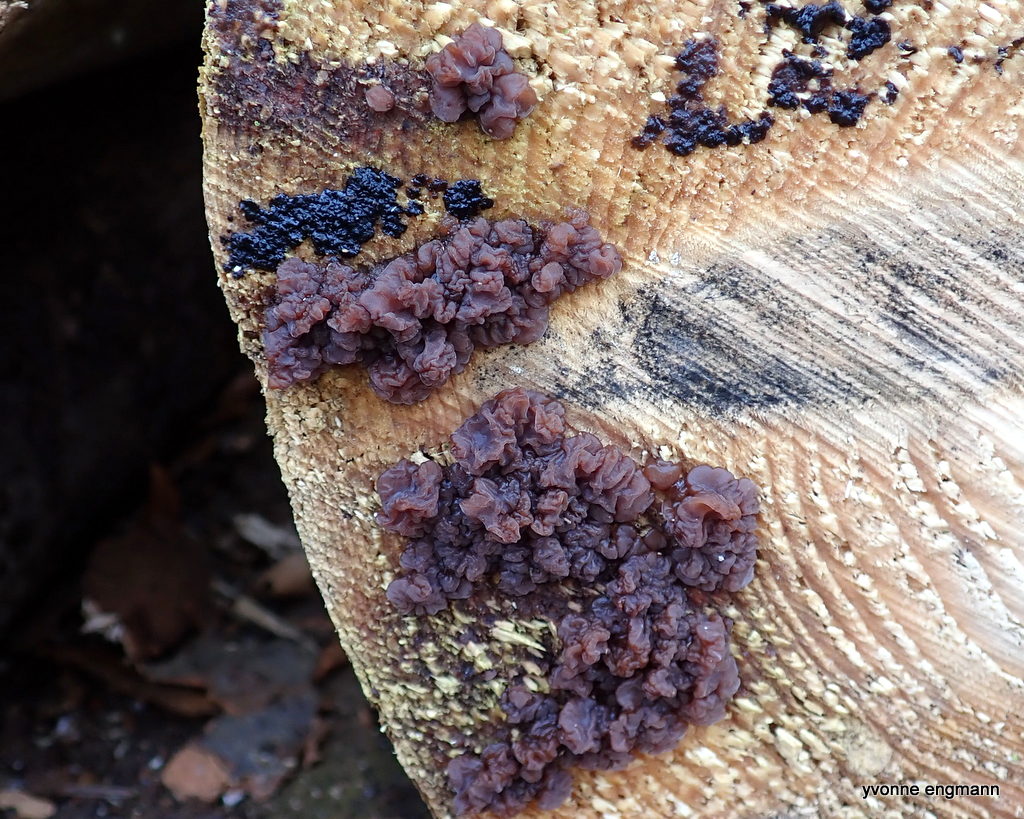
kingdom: Fungi
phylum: Ascomycota
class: Leotiomycetes
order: Helotiales
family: Gelatinodiscaceae
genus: Ascocoryne
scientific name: Ascocoryne
